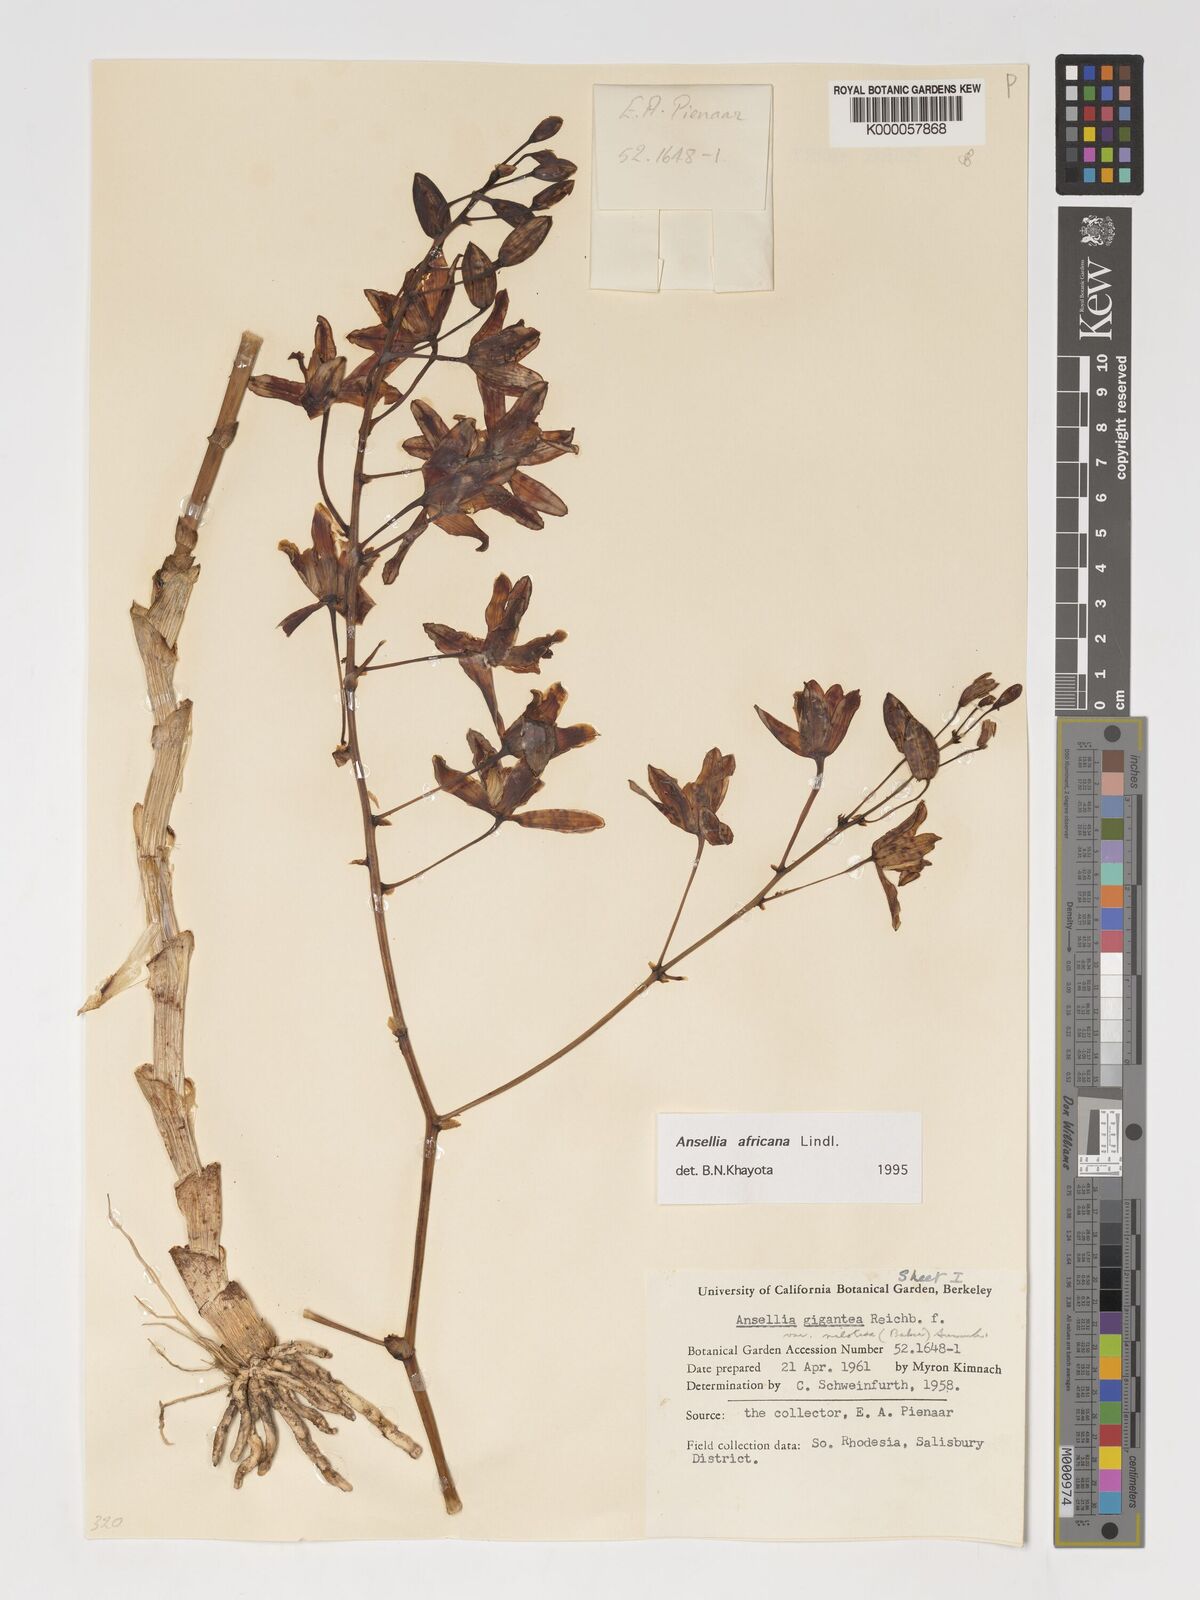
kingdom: Plantae
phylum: Tracheophyta
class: Liliopsida
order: Asparagales
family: Orchidaceae
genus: Ansellia
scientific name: Ansellia africana
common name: African ansellia
